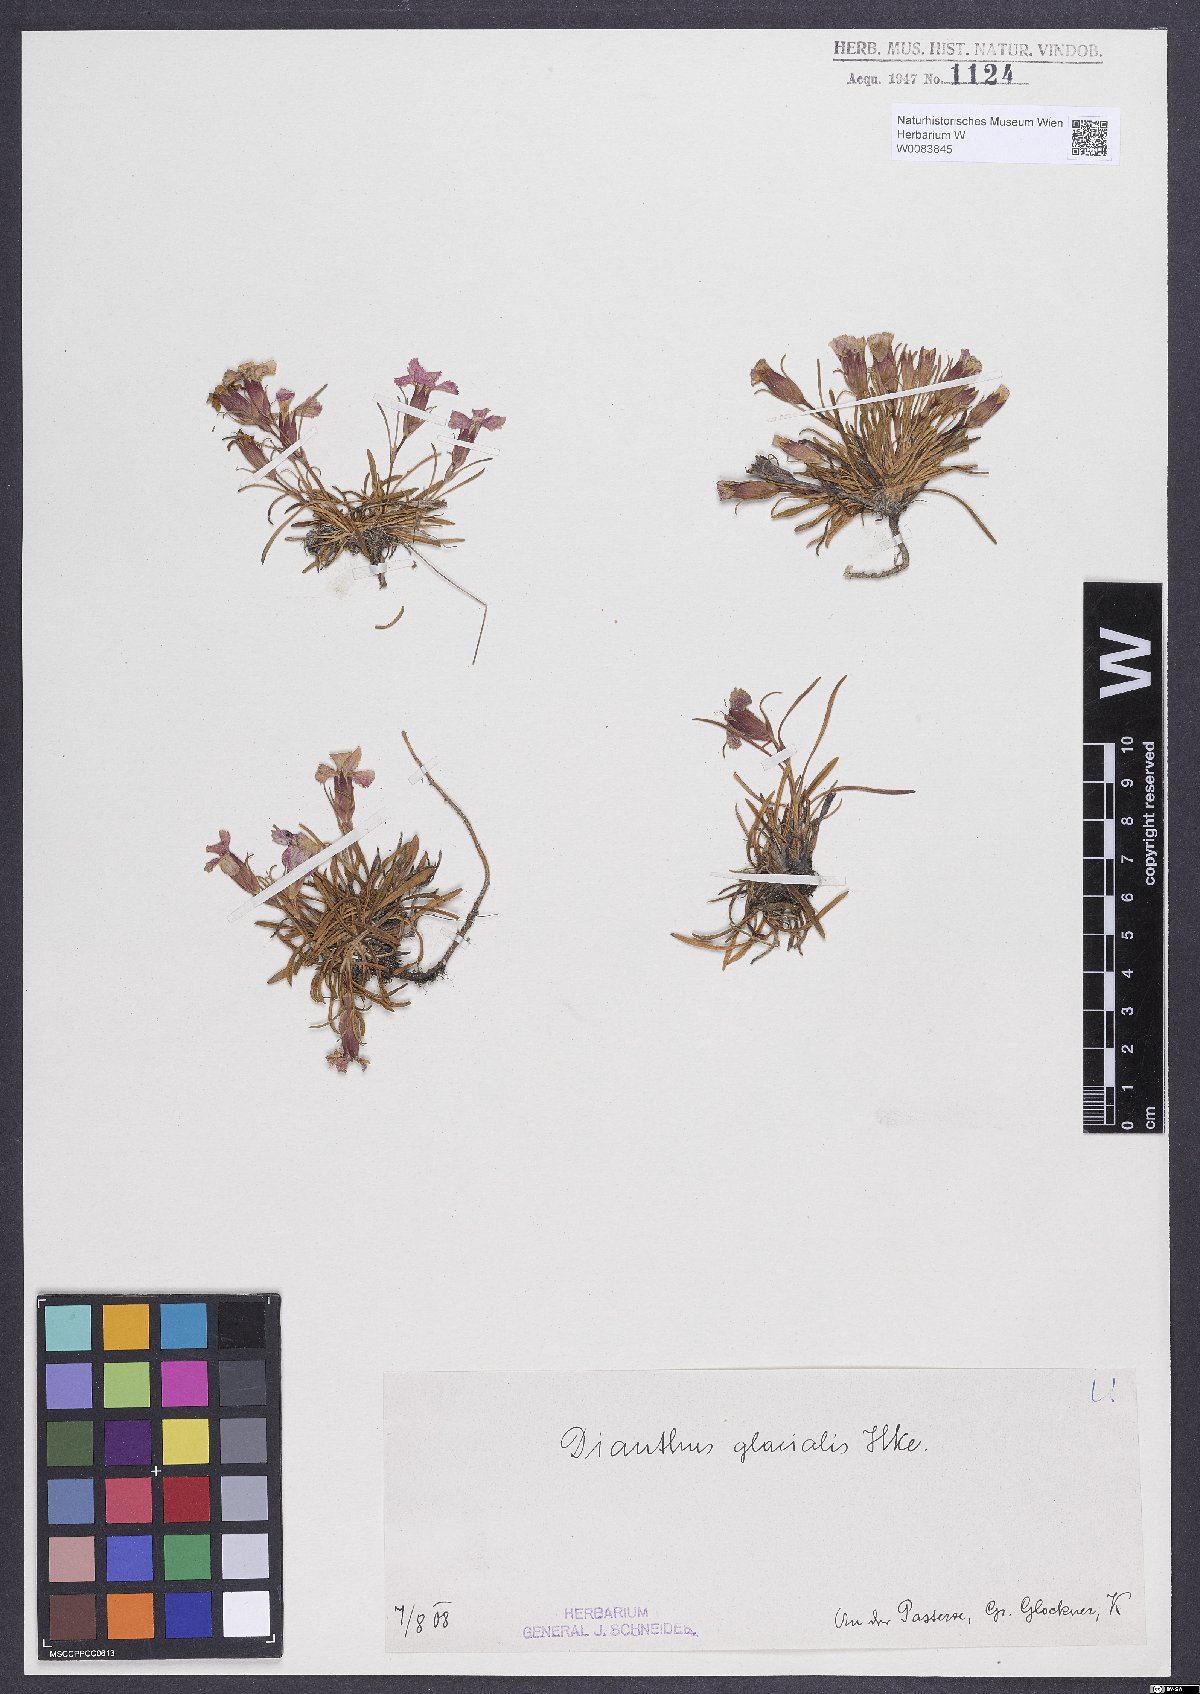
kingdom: Plantae
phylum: Tracheophyta
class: Magnoliopsida
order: Caryophyllales
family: Caryophyllaceae
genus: Dianthus
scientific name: Dianthus glacialis
